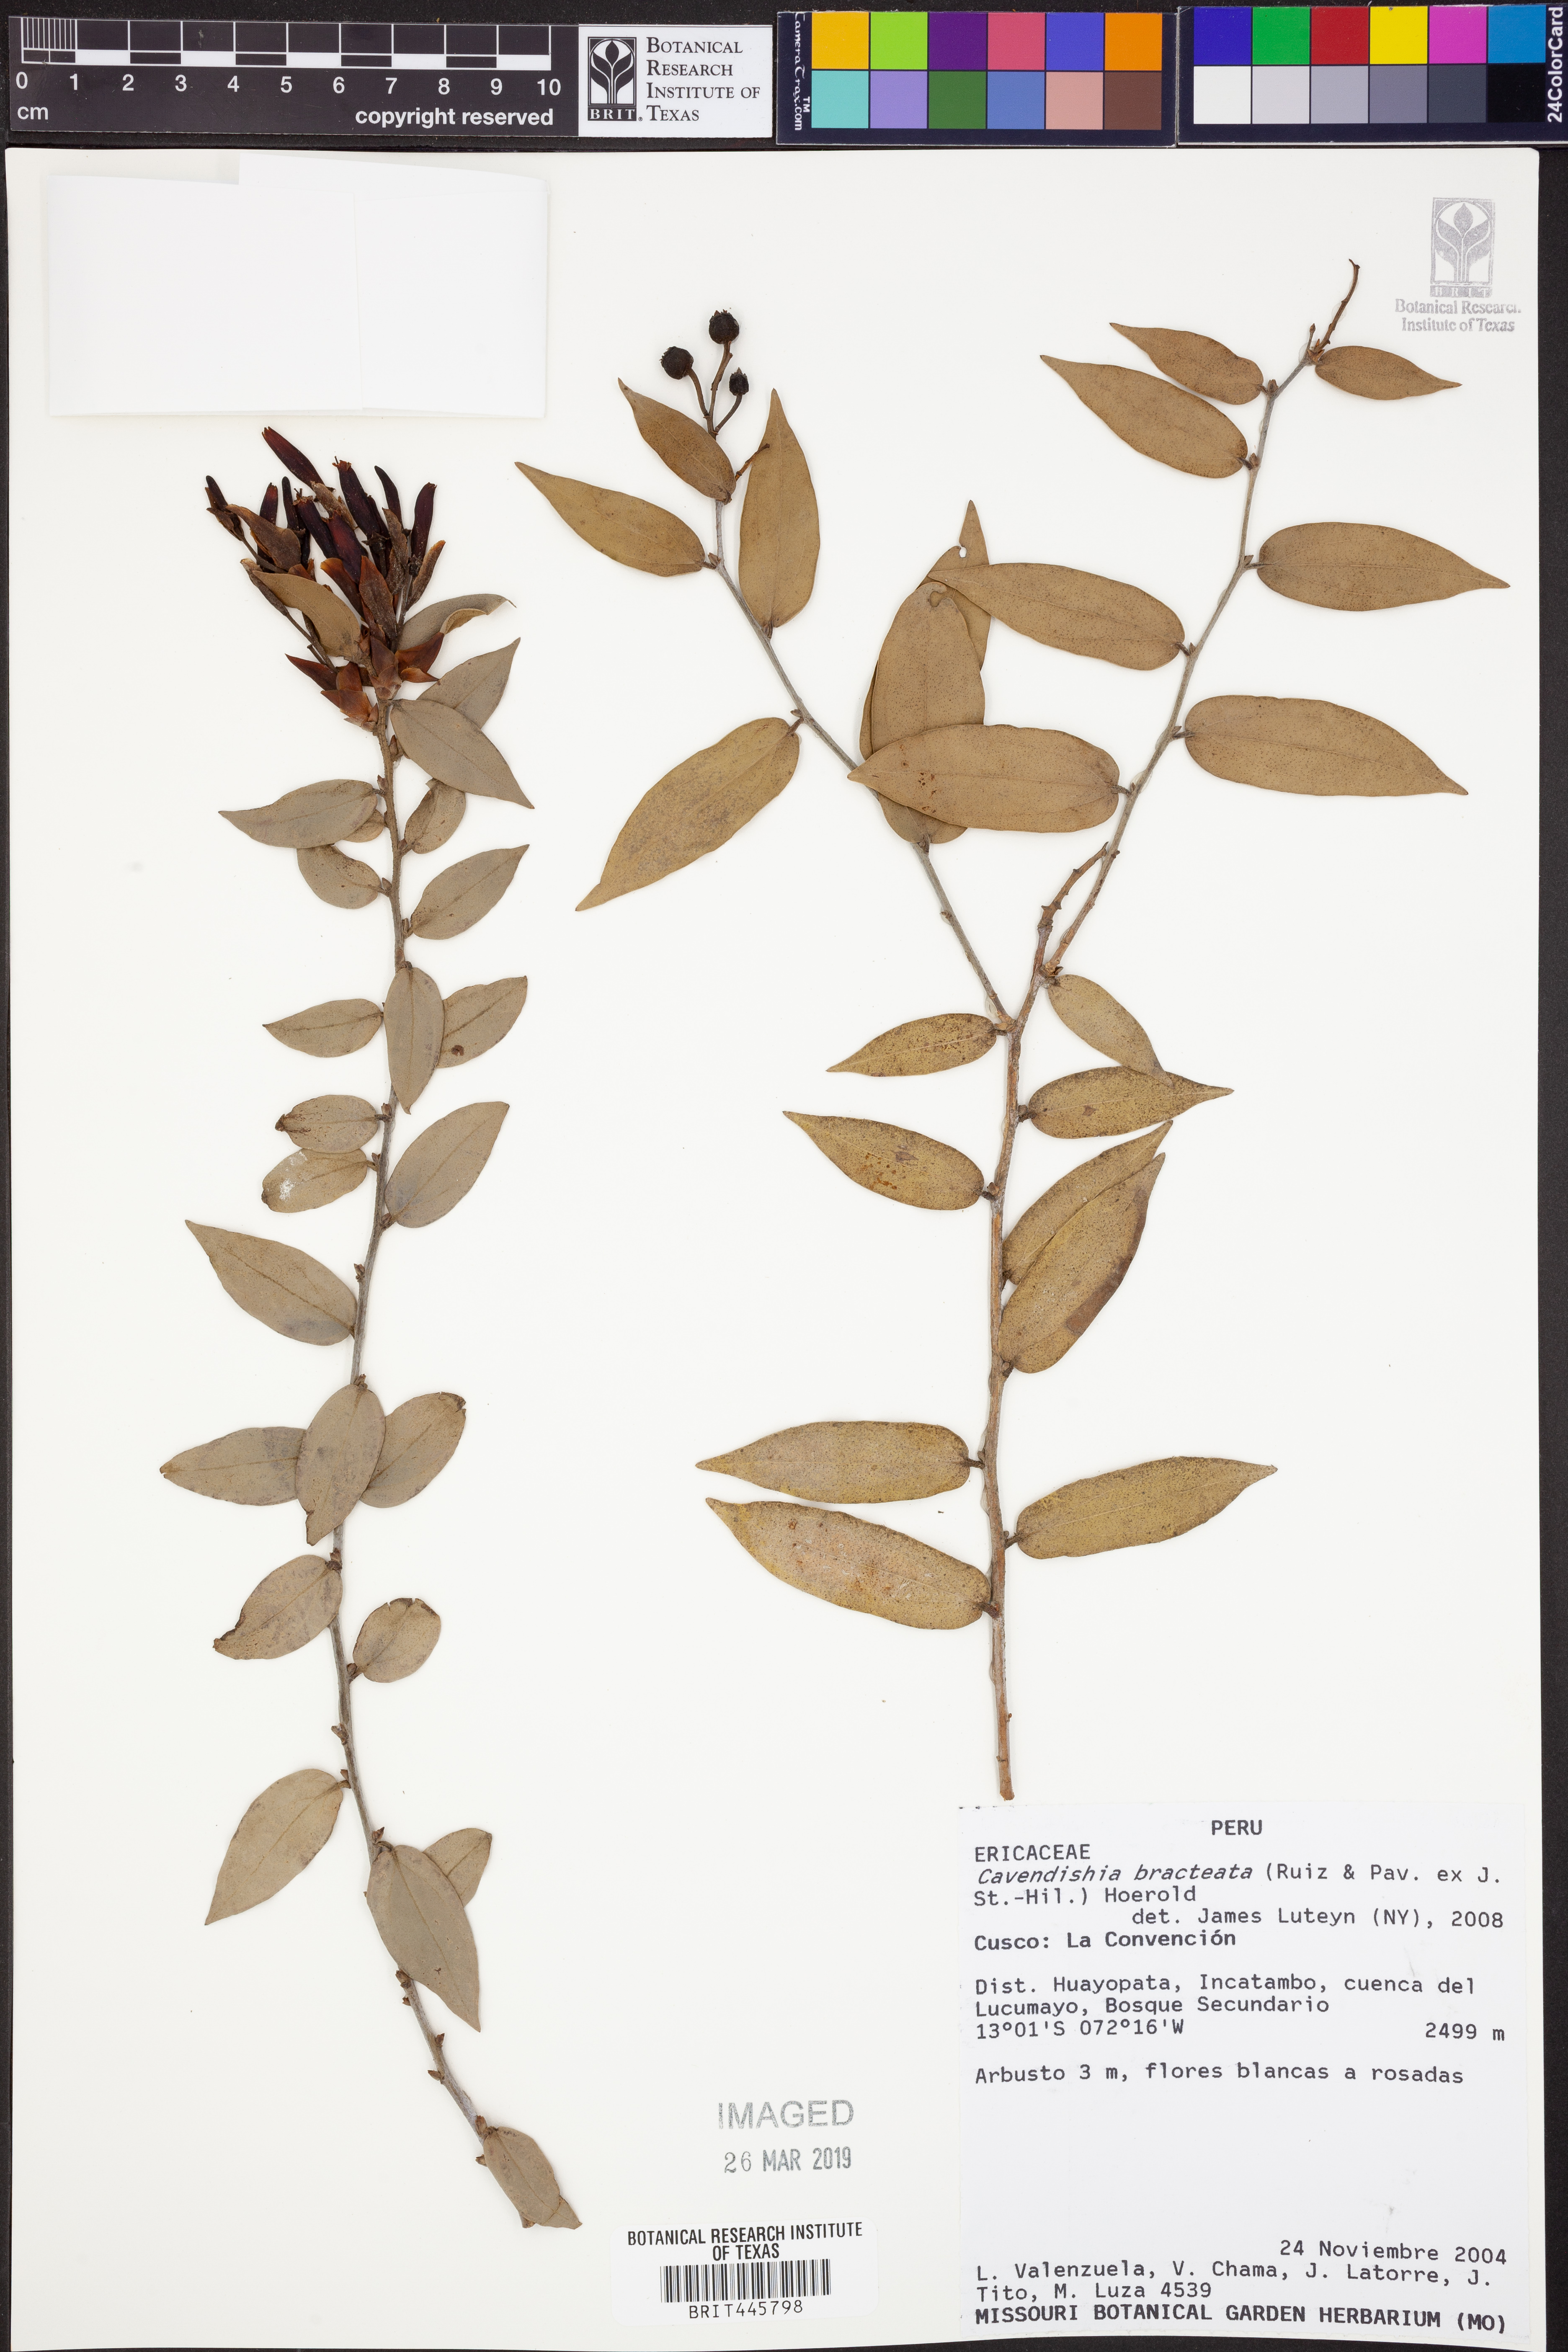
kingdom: Plantae
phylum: Tracheophyta
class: Magnoliopsida
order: Ericales
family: Ericaceae
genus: Cavendishia
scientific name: Cavendishia bracteata
